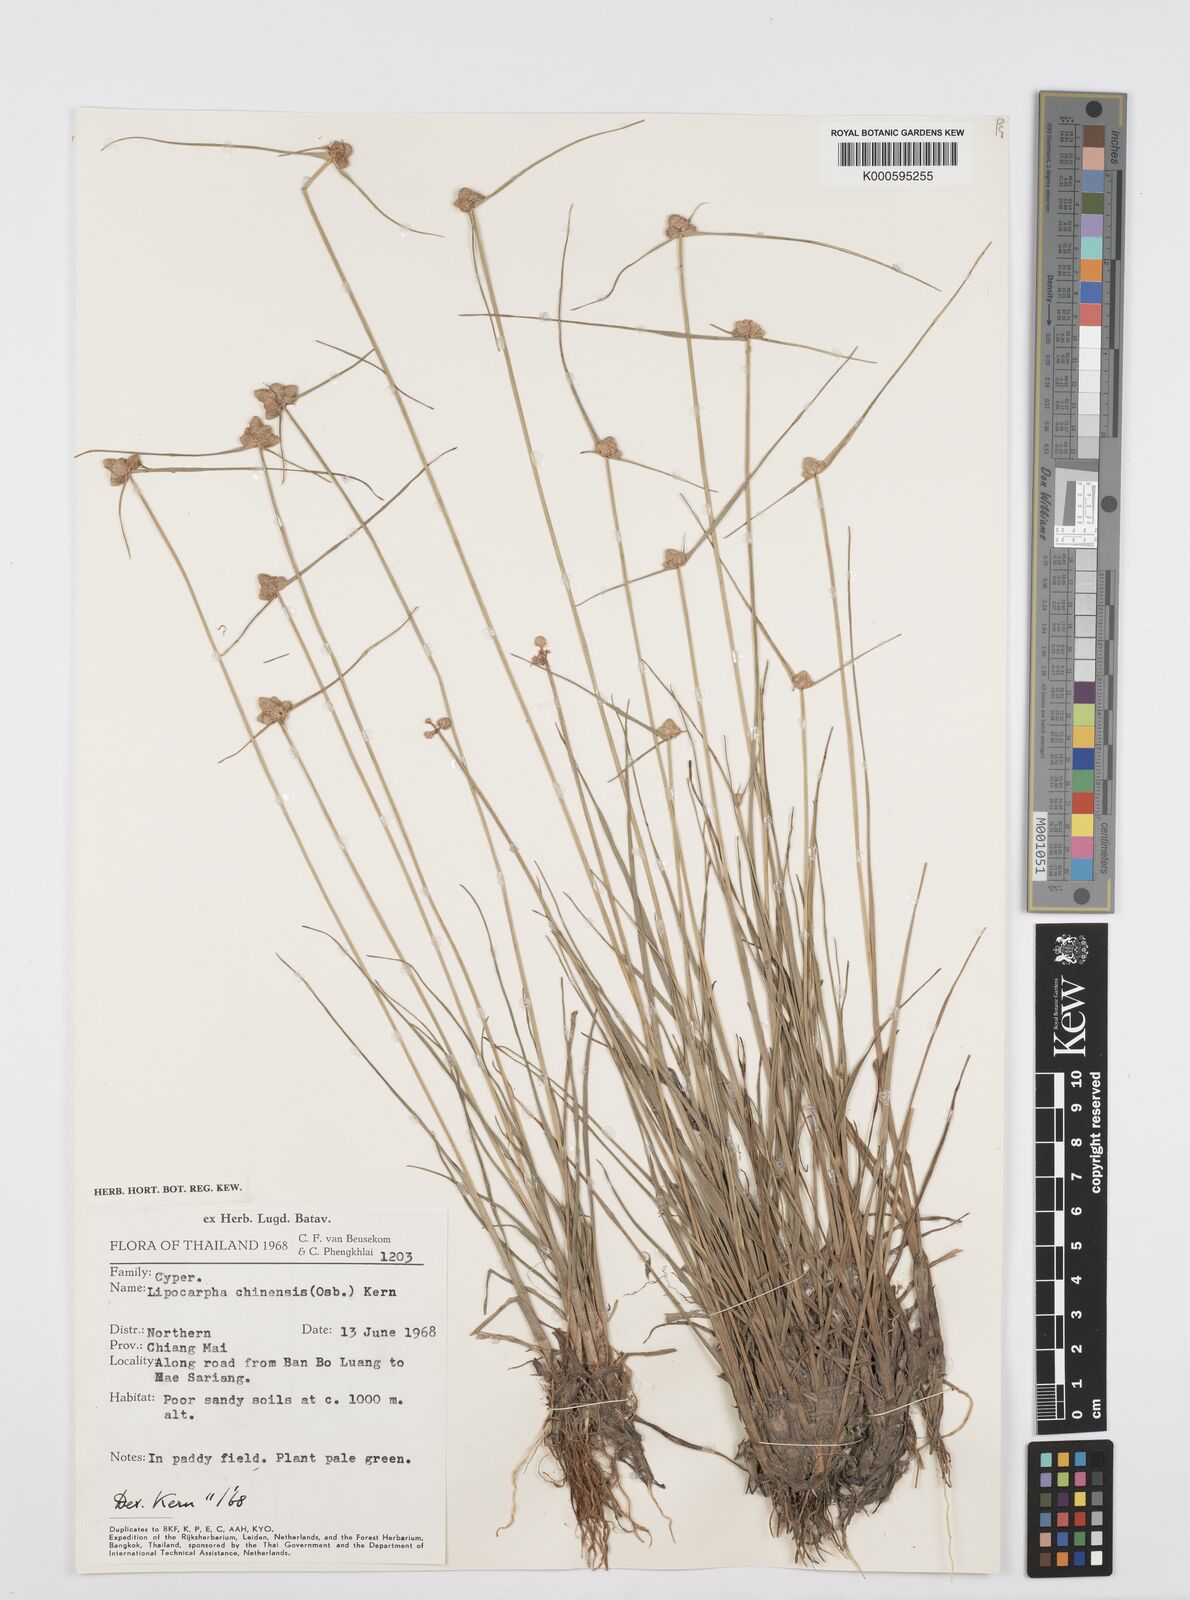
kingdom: Plantae
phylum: Tracheophyta
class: Liliopsida
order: Poales
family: Cyperaceae
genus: Cyperus
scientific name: Cyperus albescens
